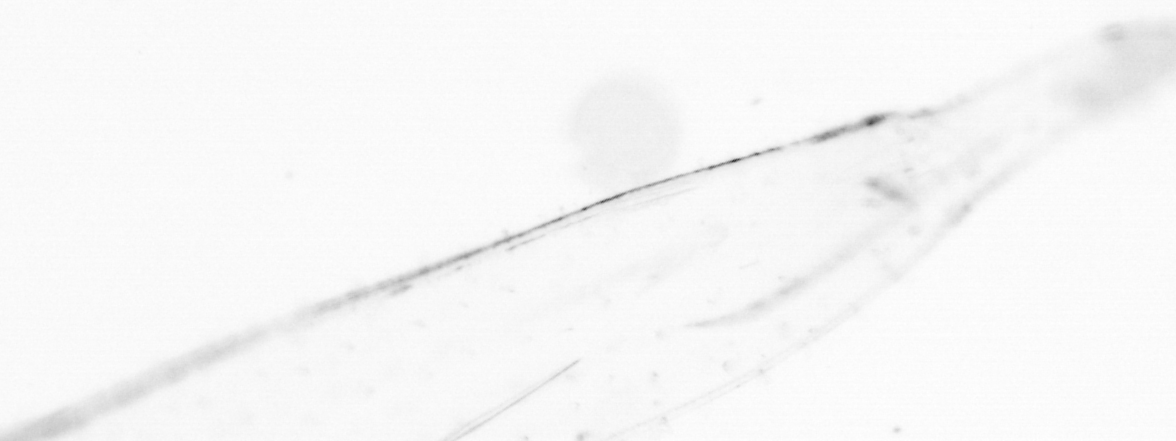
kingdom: Animalia
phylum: Chaetognatha
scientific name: Chaetognatha
